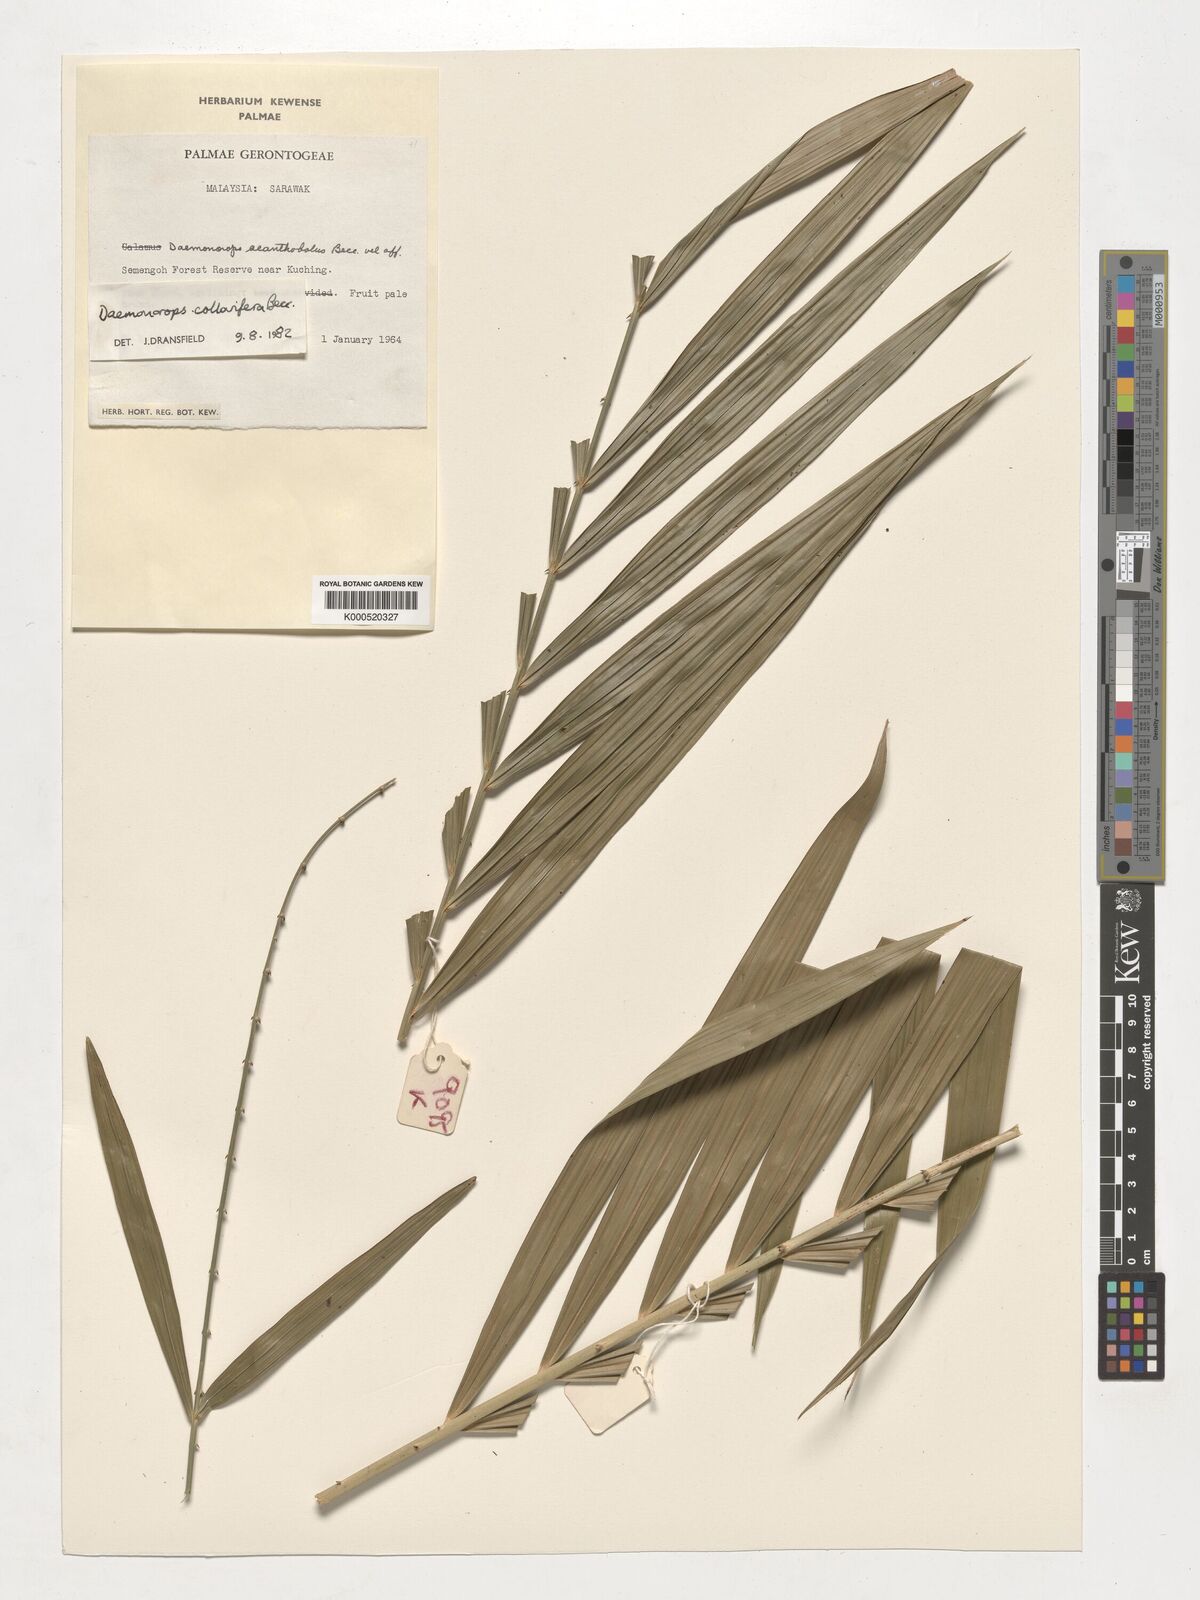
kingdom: Plantae
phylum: Tracheophyta
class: Liliopsida
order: Arecales
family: Arecaceae
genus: Calamus
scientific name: Calamus geniculatus
